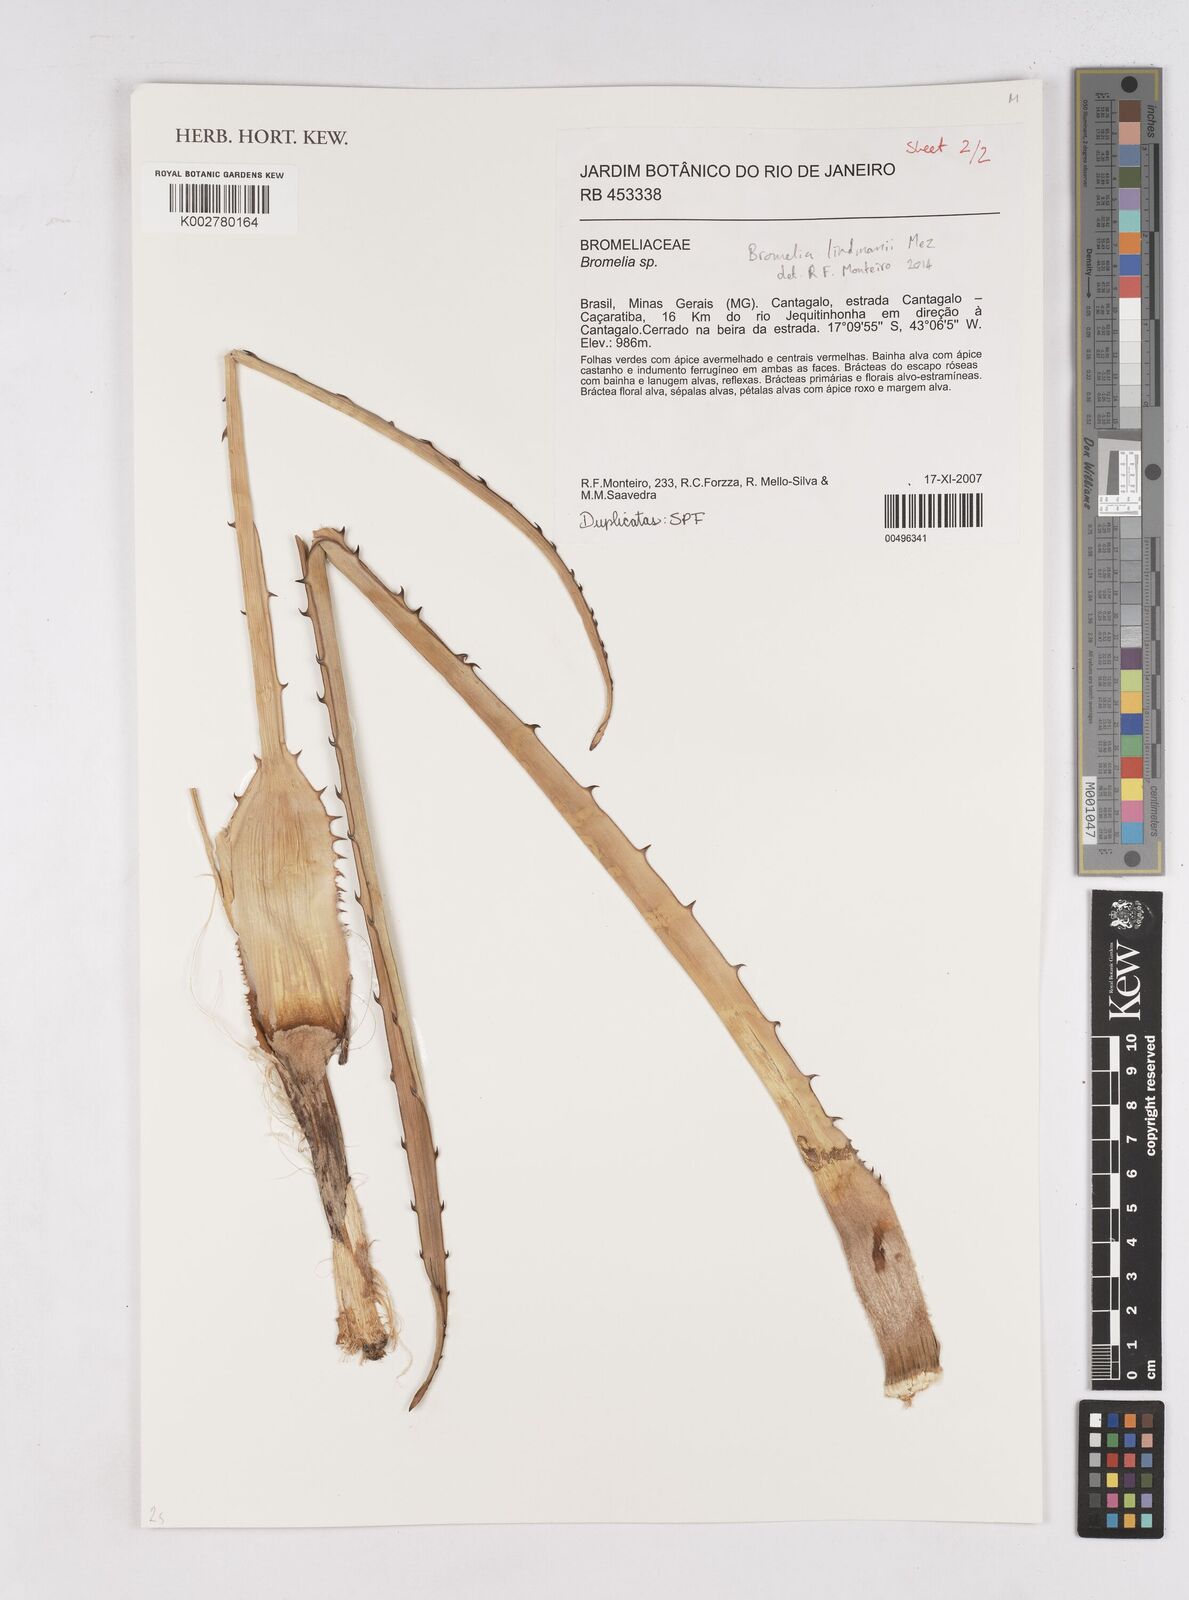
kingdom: Plantae
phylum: Tracheophyta
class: Liliopsida
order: Poales
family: Bromeliaceae
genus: Bromelia
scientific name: Bromelia serra
